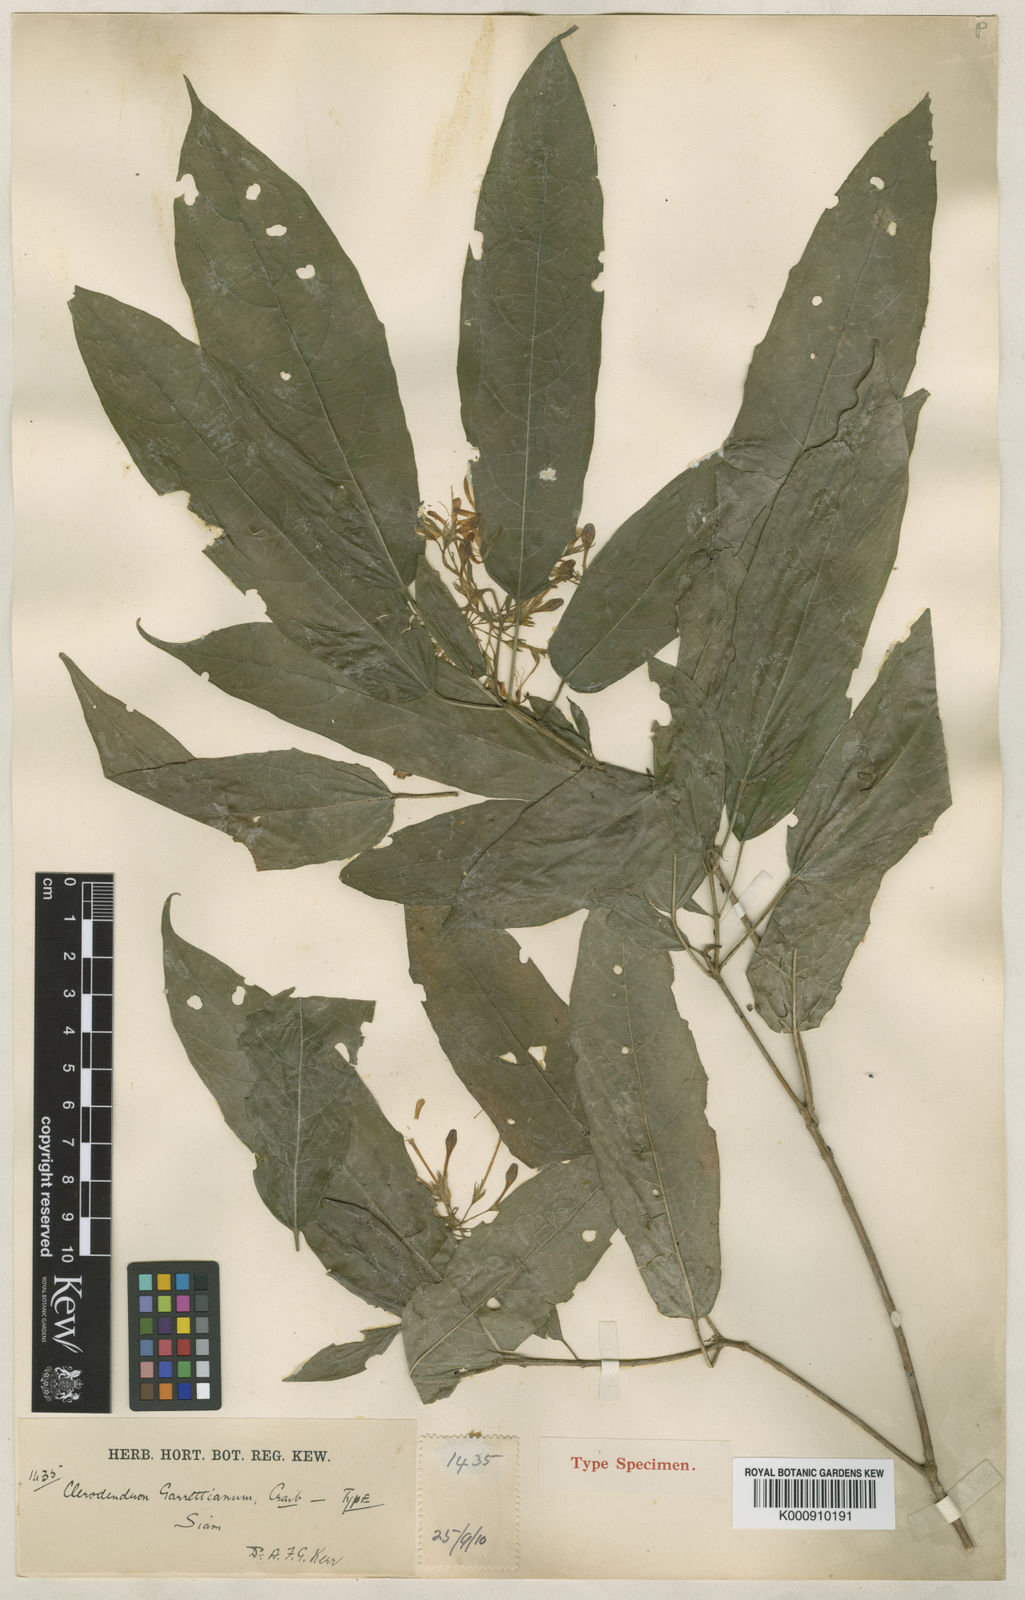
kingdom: Plantae
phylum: Tracheophyta
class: Magnoliopsida
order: Lamiales
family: Lamiaceae
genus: Clerodendrum
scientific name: Clerodendrum garrettianum
